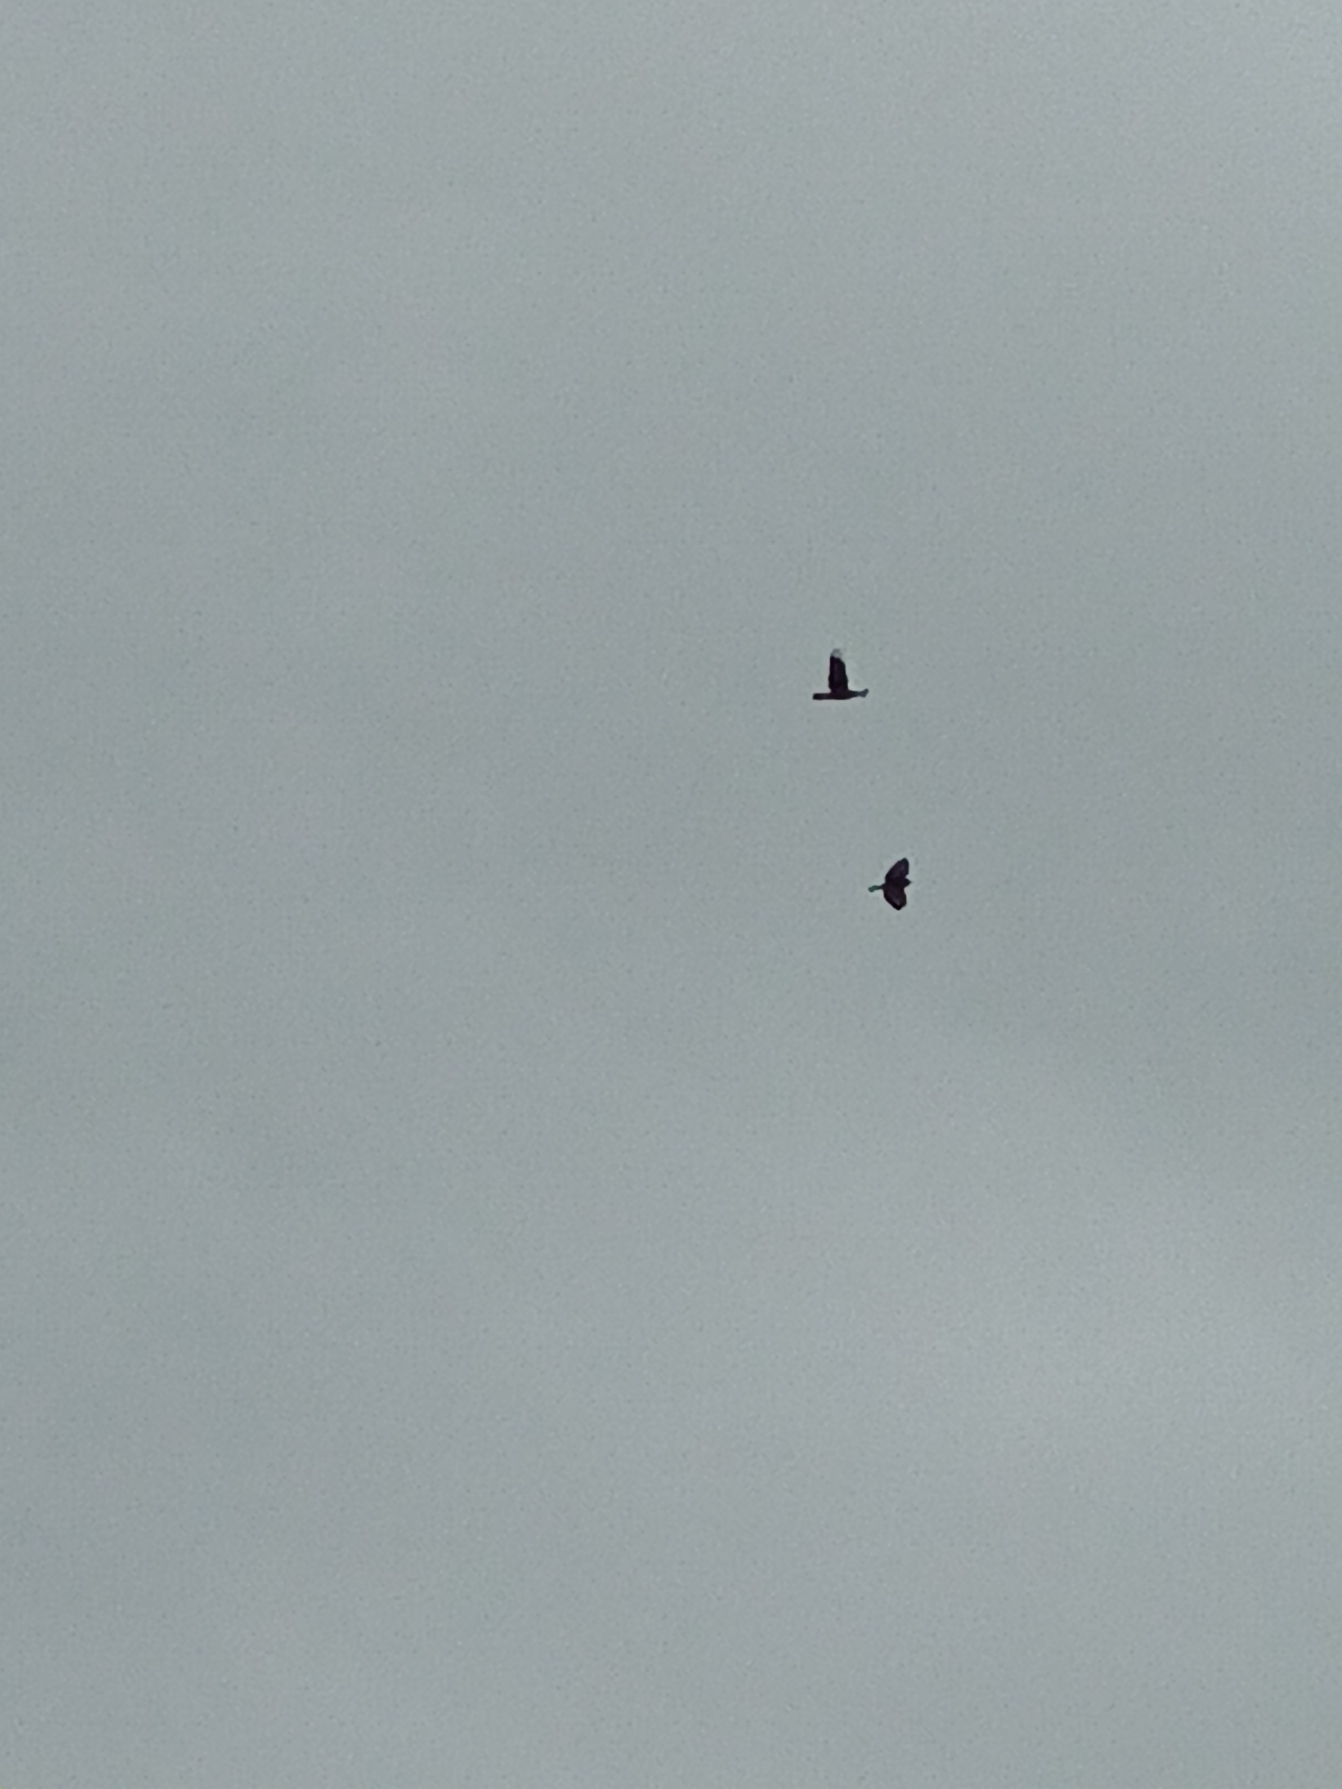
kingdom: Animalia
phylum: Chordata
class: Aves
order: Passeriformes
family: Corvidae
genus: Corvus
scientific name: Corvus corax
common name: Ravn
